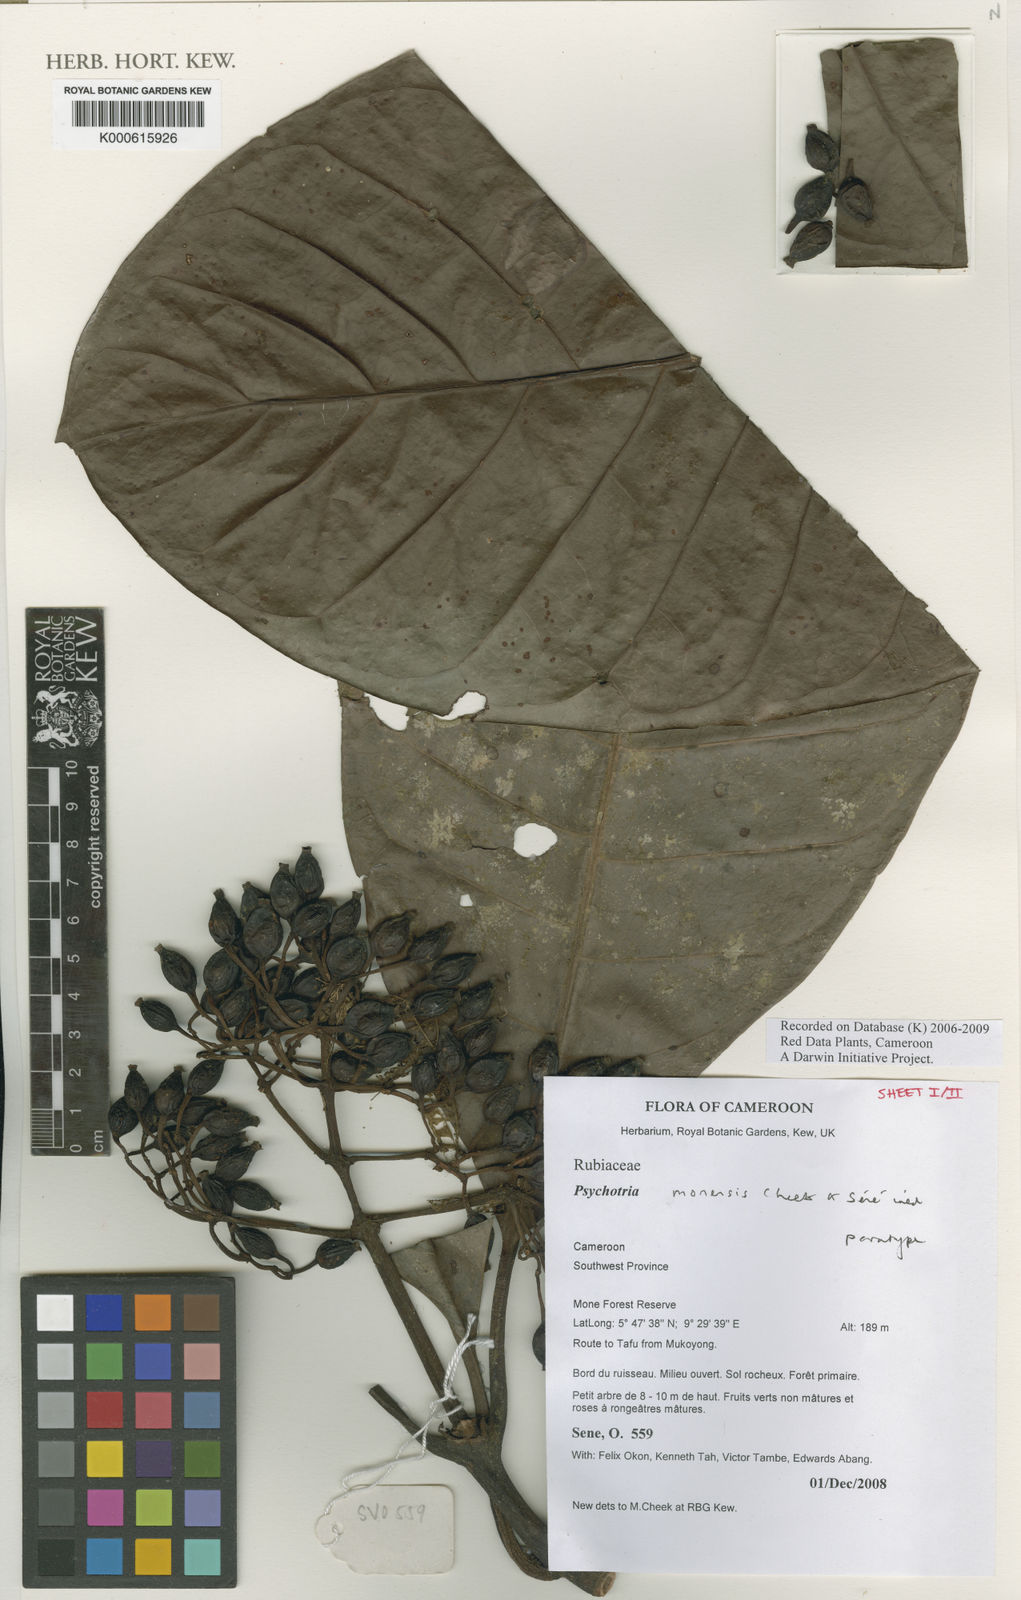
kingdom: Plantae
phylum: Tracheophyta
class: Magnoliopsida
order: Gentianales
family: Rubiaceae
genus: Psychotria
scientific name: Psychotria
